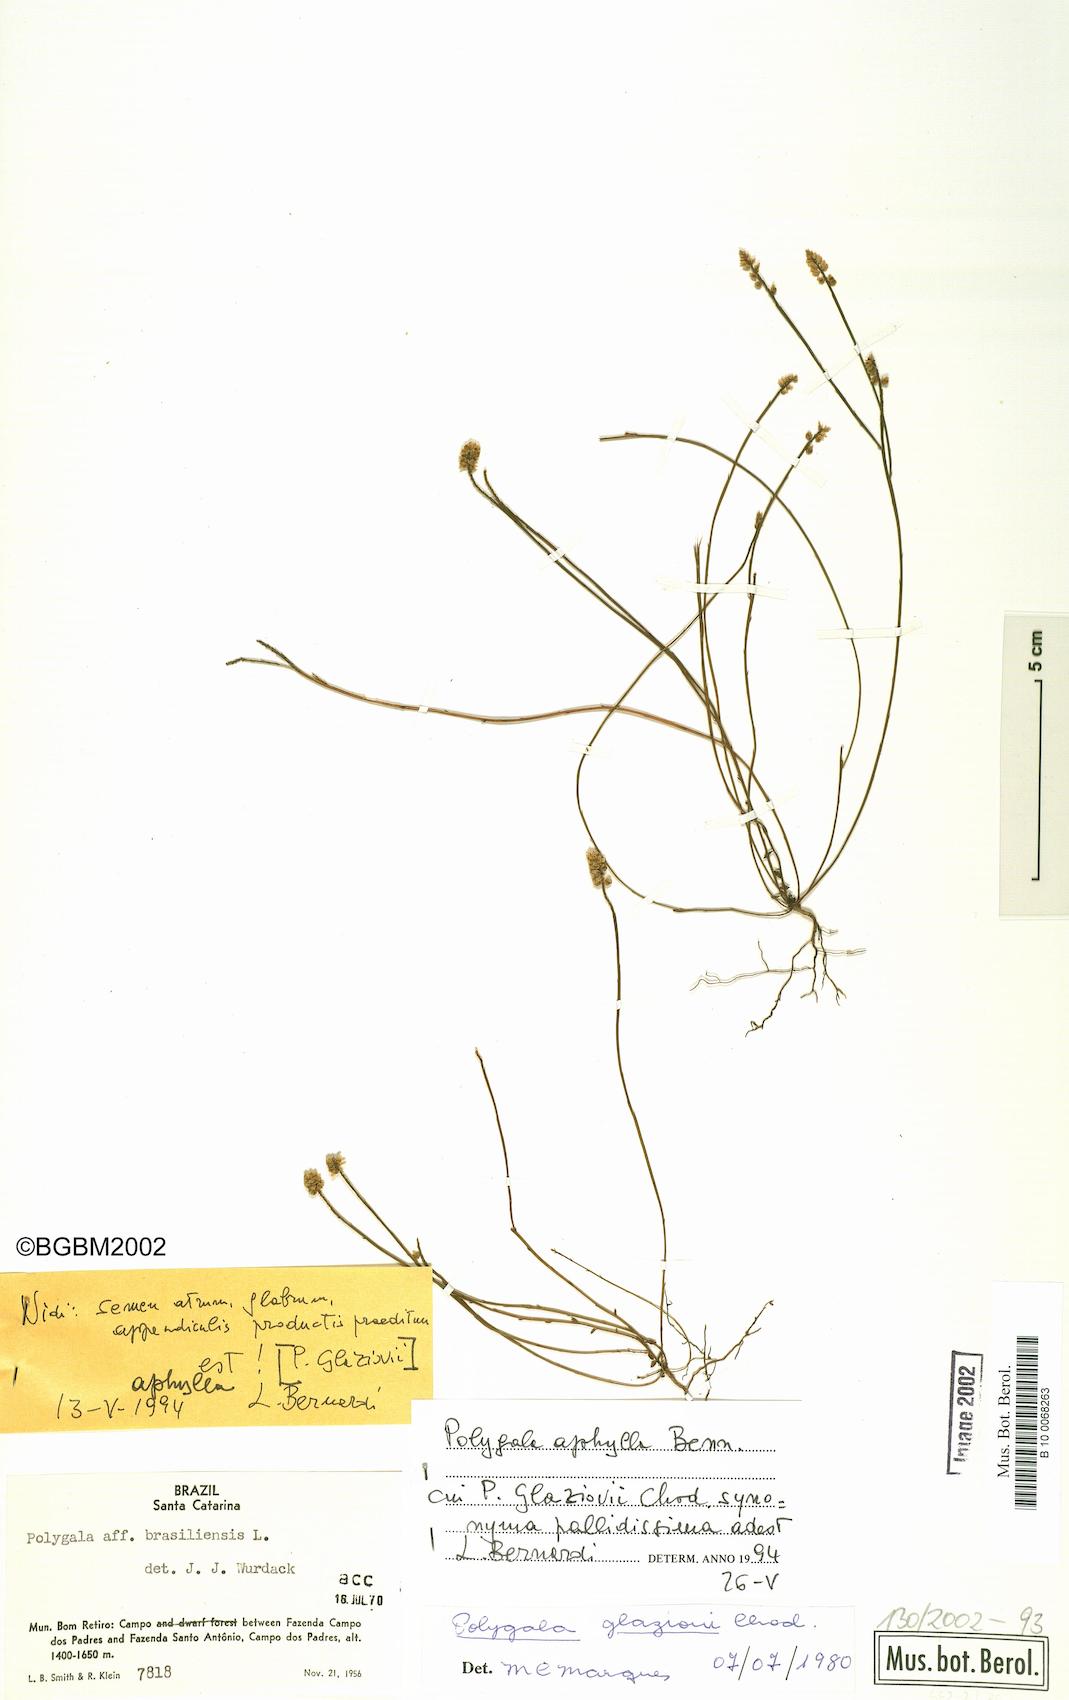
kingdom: Plantae
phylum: Tracheophyta
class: Magnoliopsida
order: Fabales
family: Polygalaceae
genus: Polygala
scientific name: Polygala aphylla
